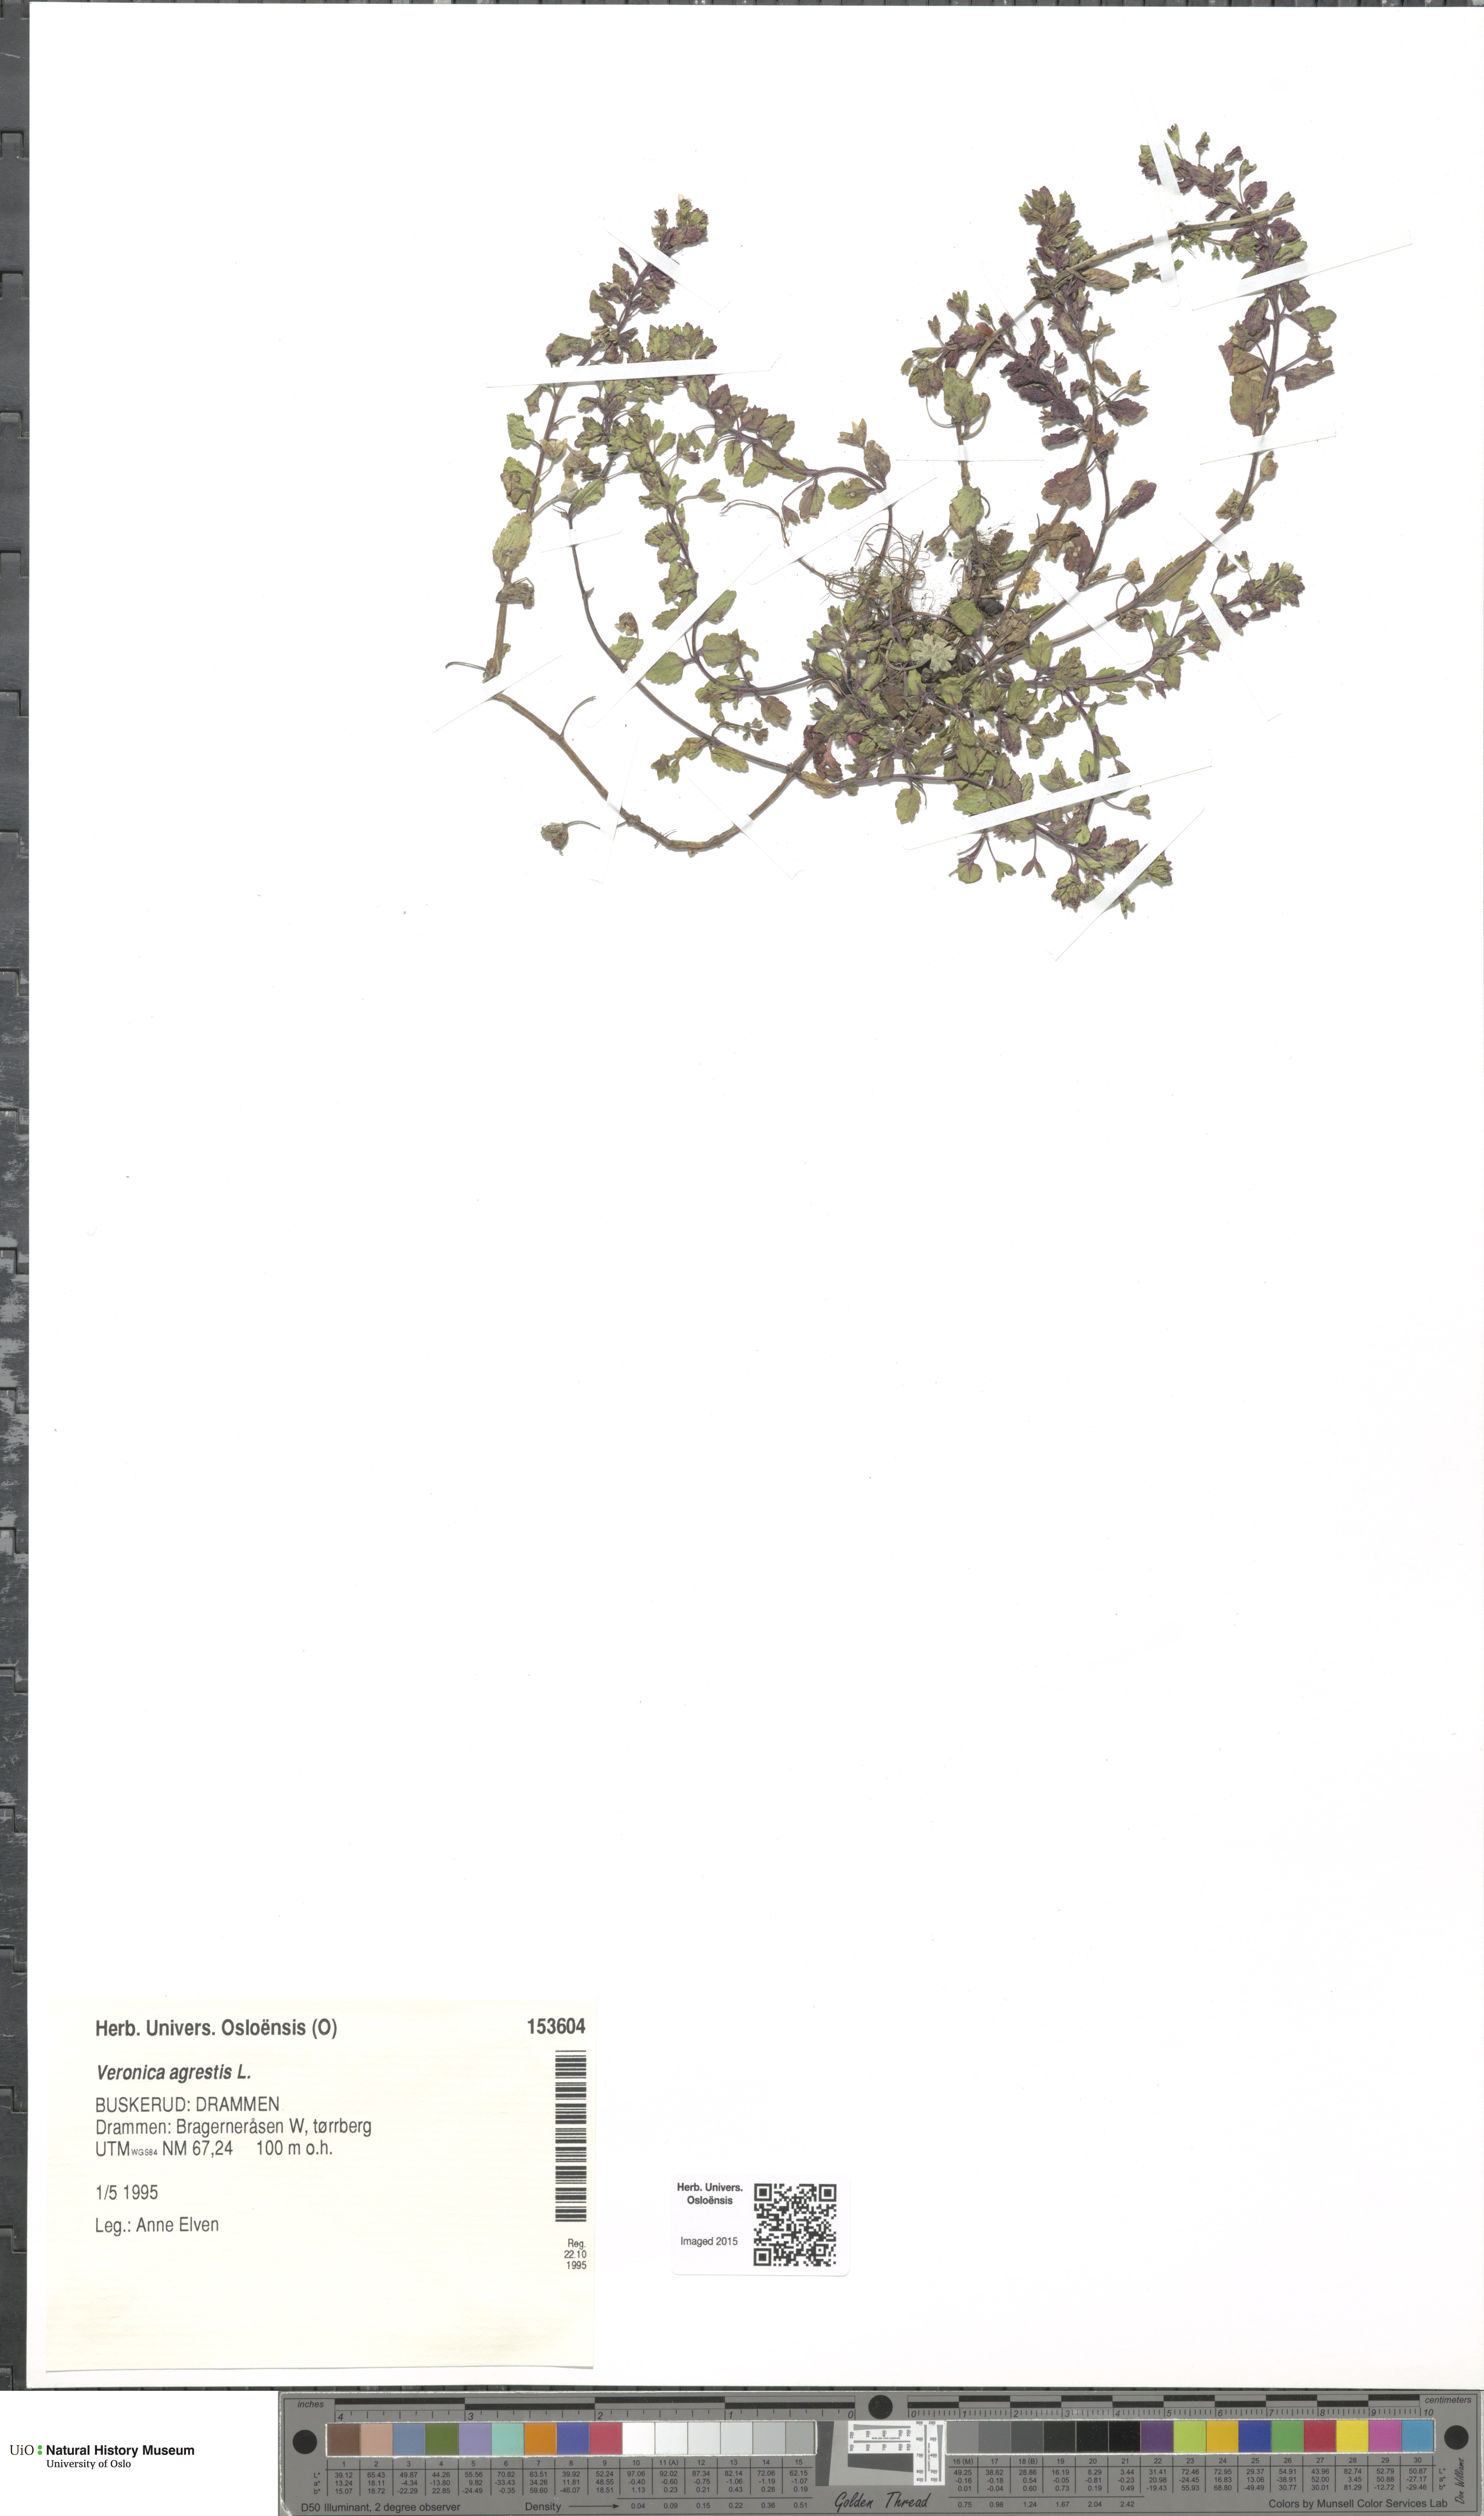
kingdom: Plantae
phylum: Tracheophyta
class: Magnoliopsida
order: Lamiales
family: Plantaginaceae
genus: Veronica
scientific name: Veronica agrestis
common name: Green field-speedwell
